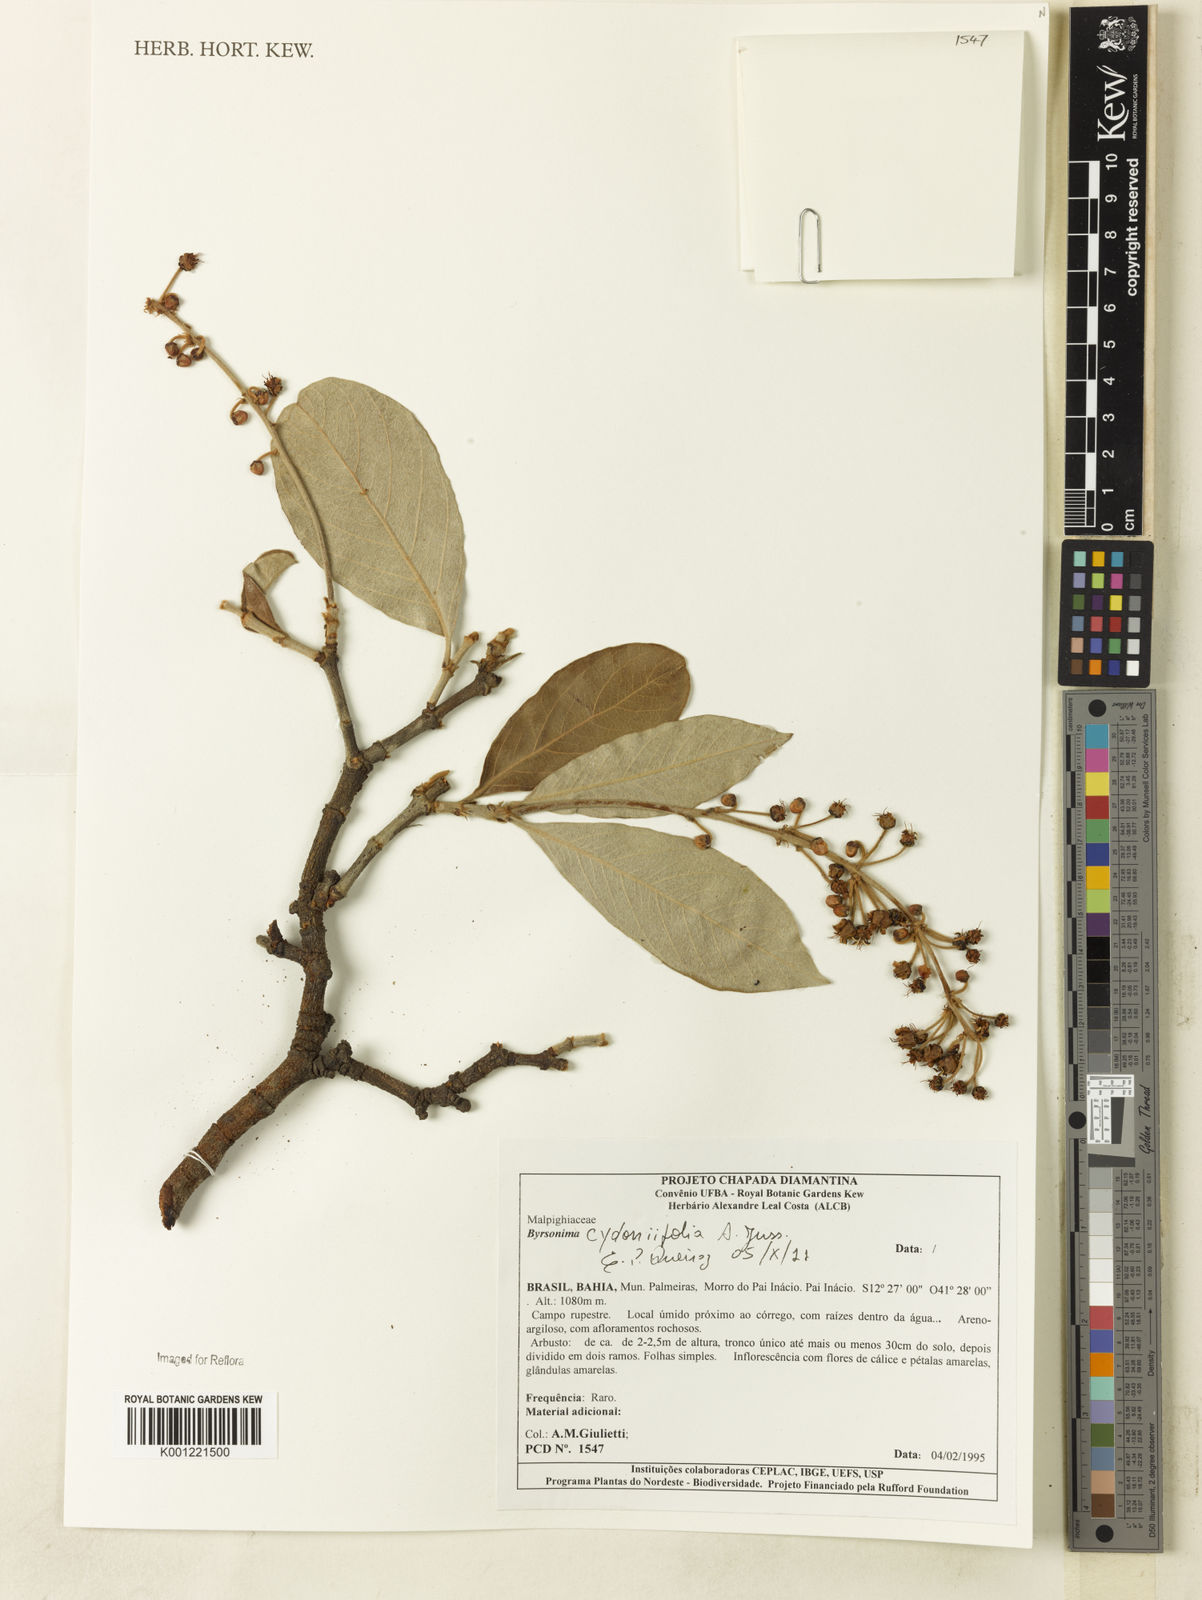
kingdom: Plantae
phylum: Tracheophyta
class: Magnoliopsida
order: Malpighiales
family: Malpighiaceae
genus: Byrsonima
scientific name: Byrsonima cydoniifolia
